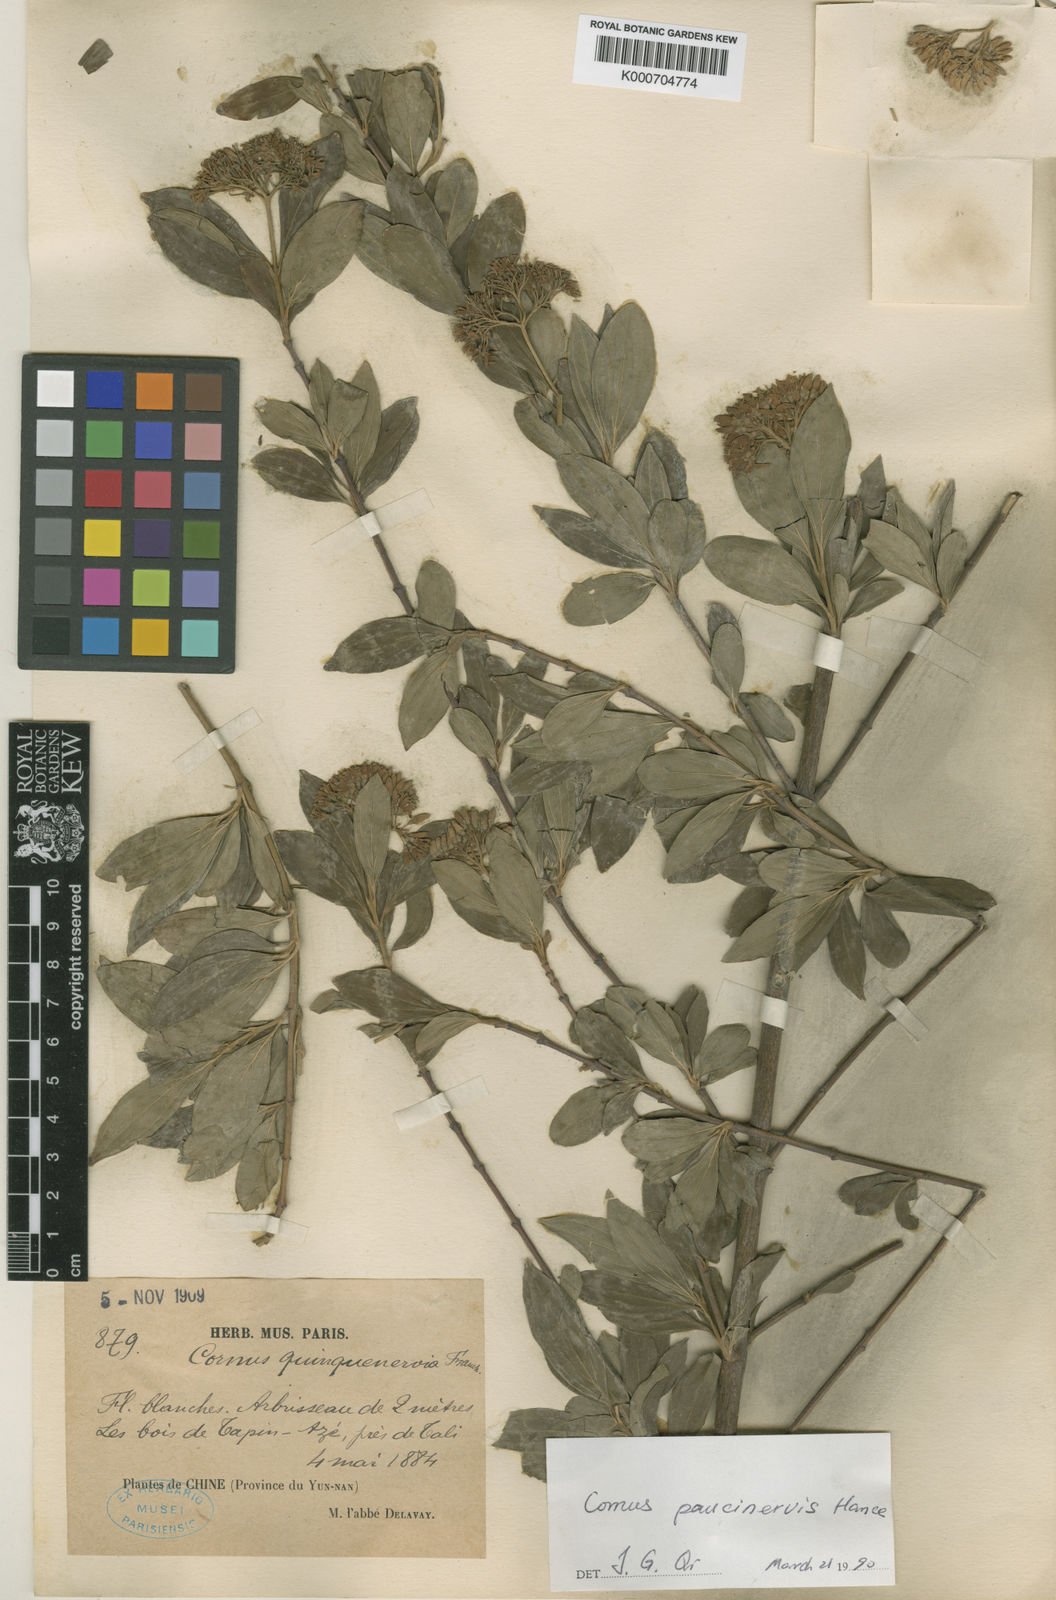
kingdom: Plantae
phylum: Tracheophyta
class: Magnoliopsida
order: Cornales
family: Cornaceae
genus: Cornus
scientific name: Cornus quinquenervis
